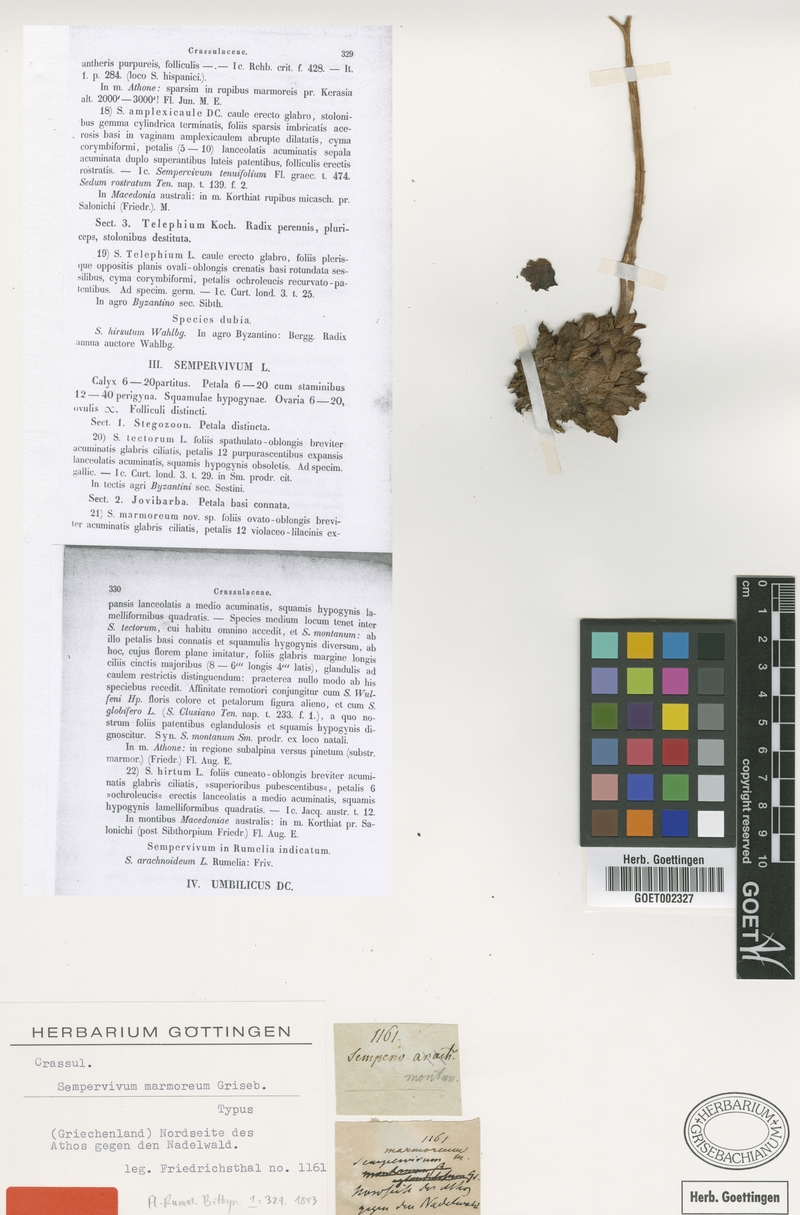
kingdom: Plantae
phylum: Tracheophyta
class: Magnoliopsida
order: Saxifragales
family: Crassulaceae
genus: Sempervivum
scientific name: Sempervivum marmoreum
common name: Houseleek
